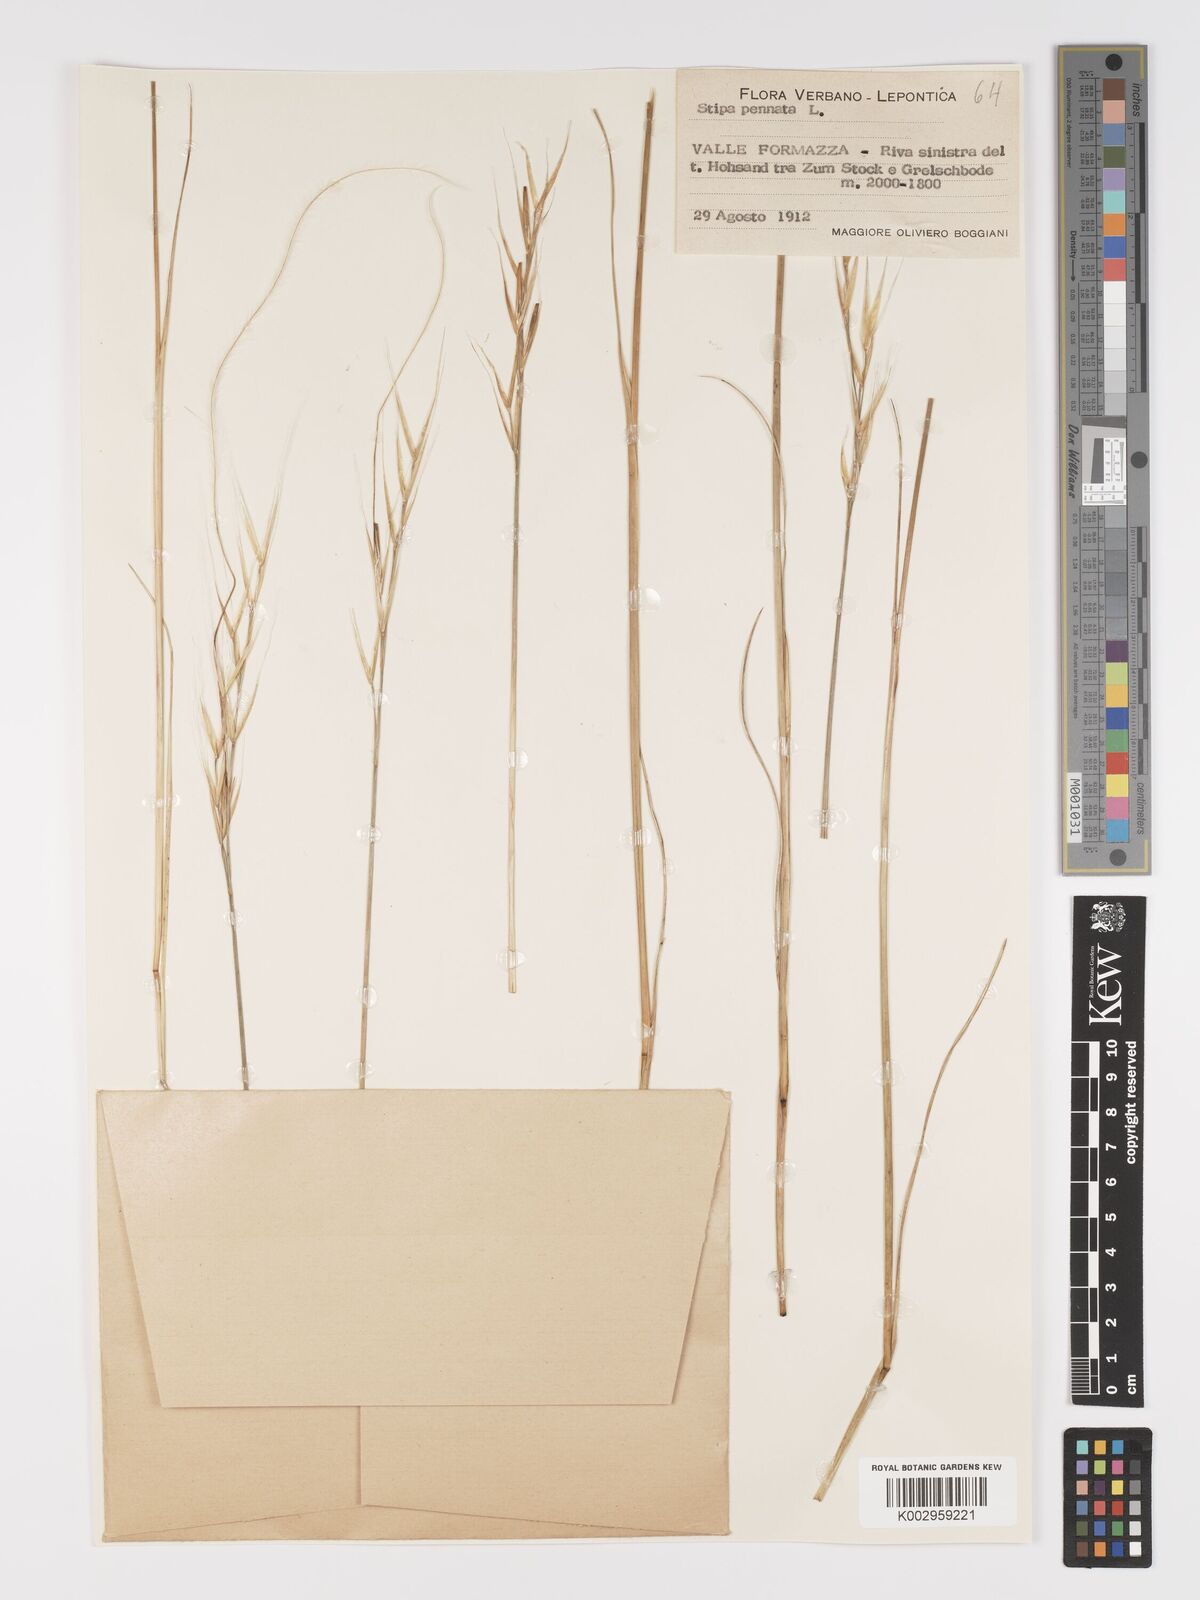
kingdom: Plantae
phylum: Tracheophyta
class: Liliopsida
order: Poales
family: Poaceae
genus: Stipa
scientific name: Stipa pennata
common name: European feather grass
